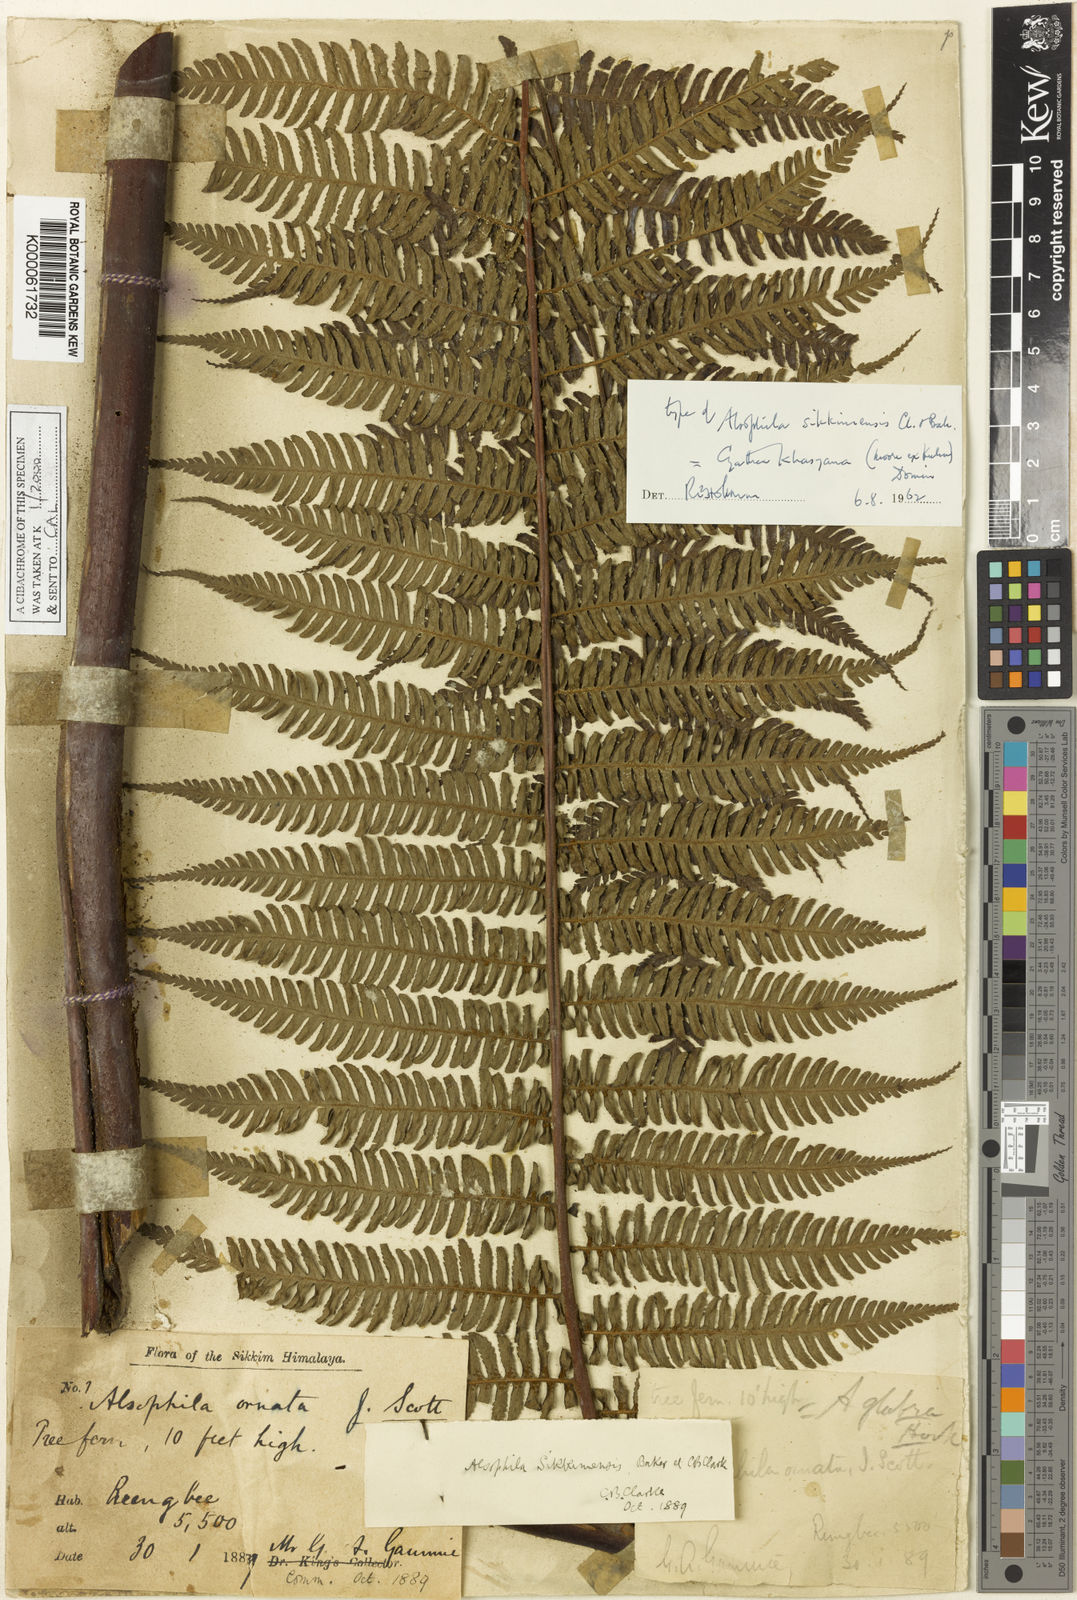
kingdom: Plantae
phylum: Tracheophyta
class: Polypodiopsida
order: Cyatheales
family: Cyatheaceae
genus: Gymnosphaera
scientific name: Gymnosphaera khasyana
